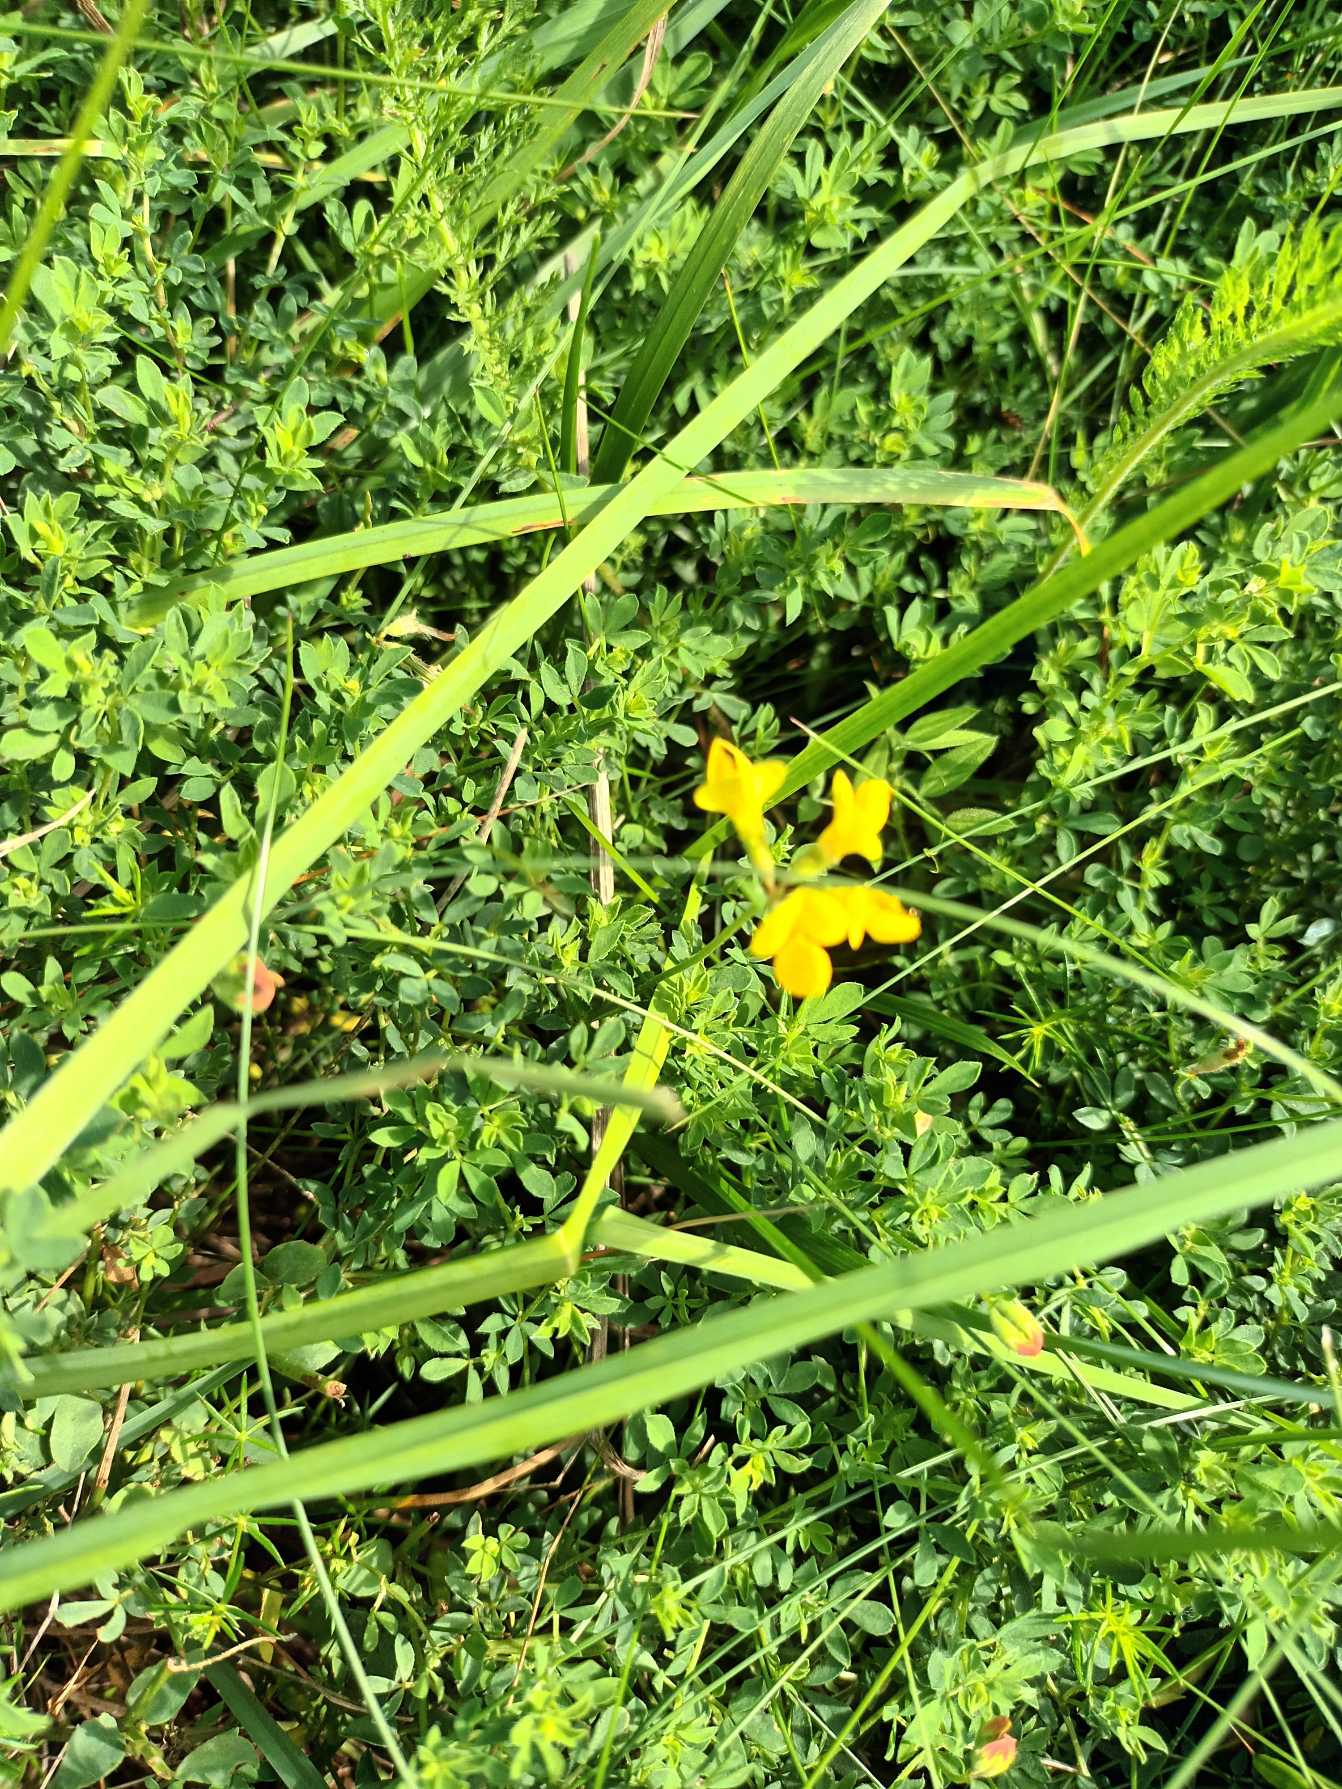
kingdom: Plantae
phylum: Tracheophyta
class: Magnoliopsida
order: Fabales
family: Fabaceae
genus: Lotus
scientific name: Lotus corniculatus
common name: Almindelig kællingetand
